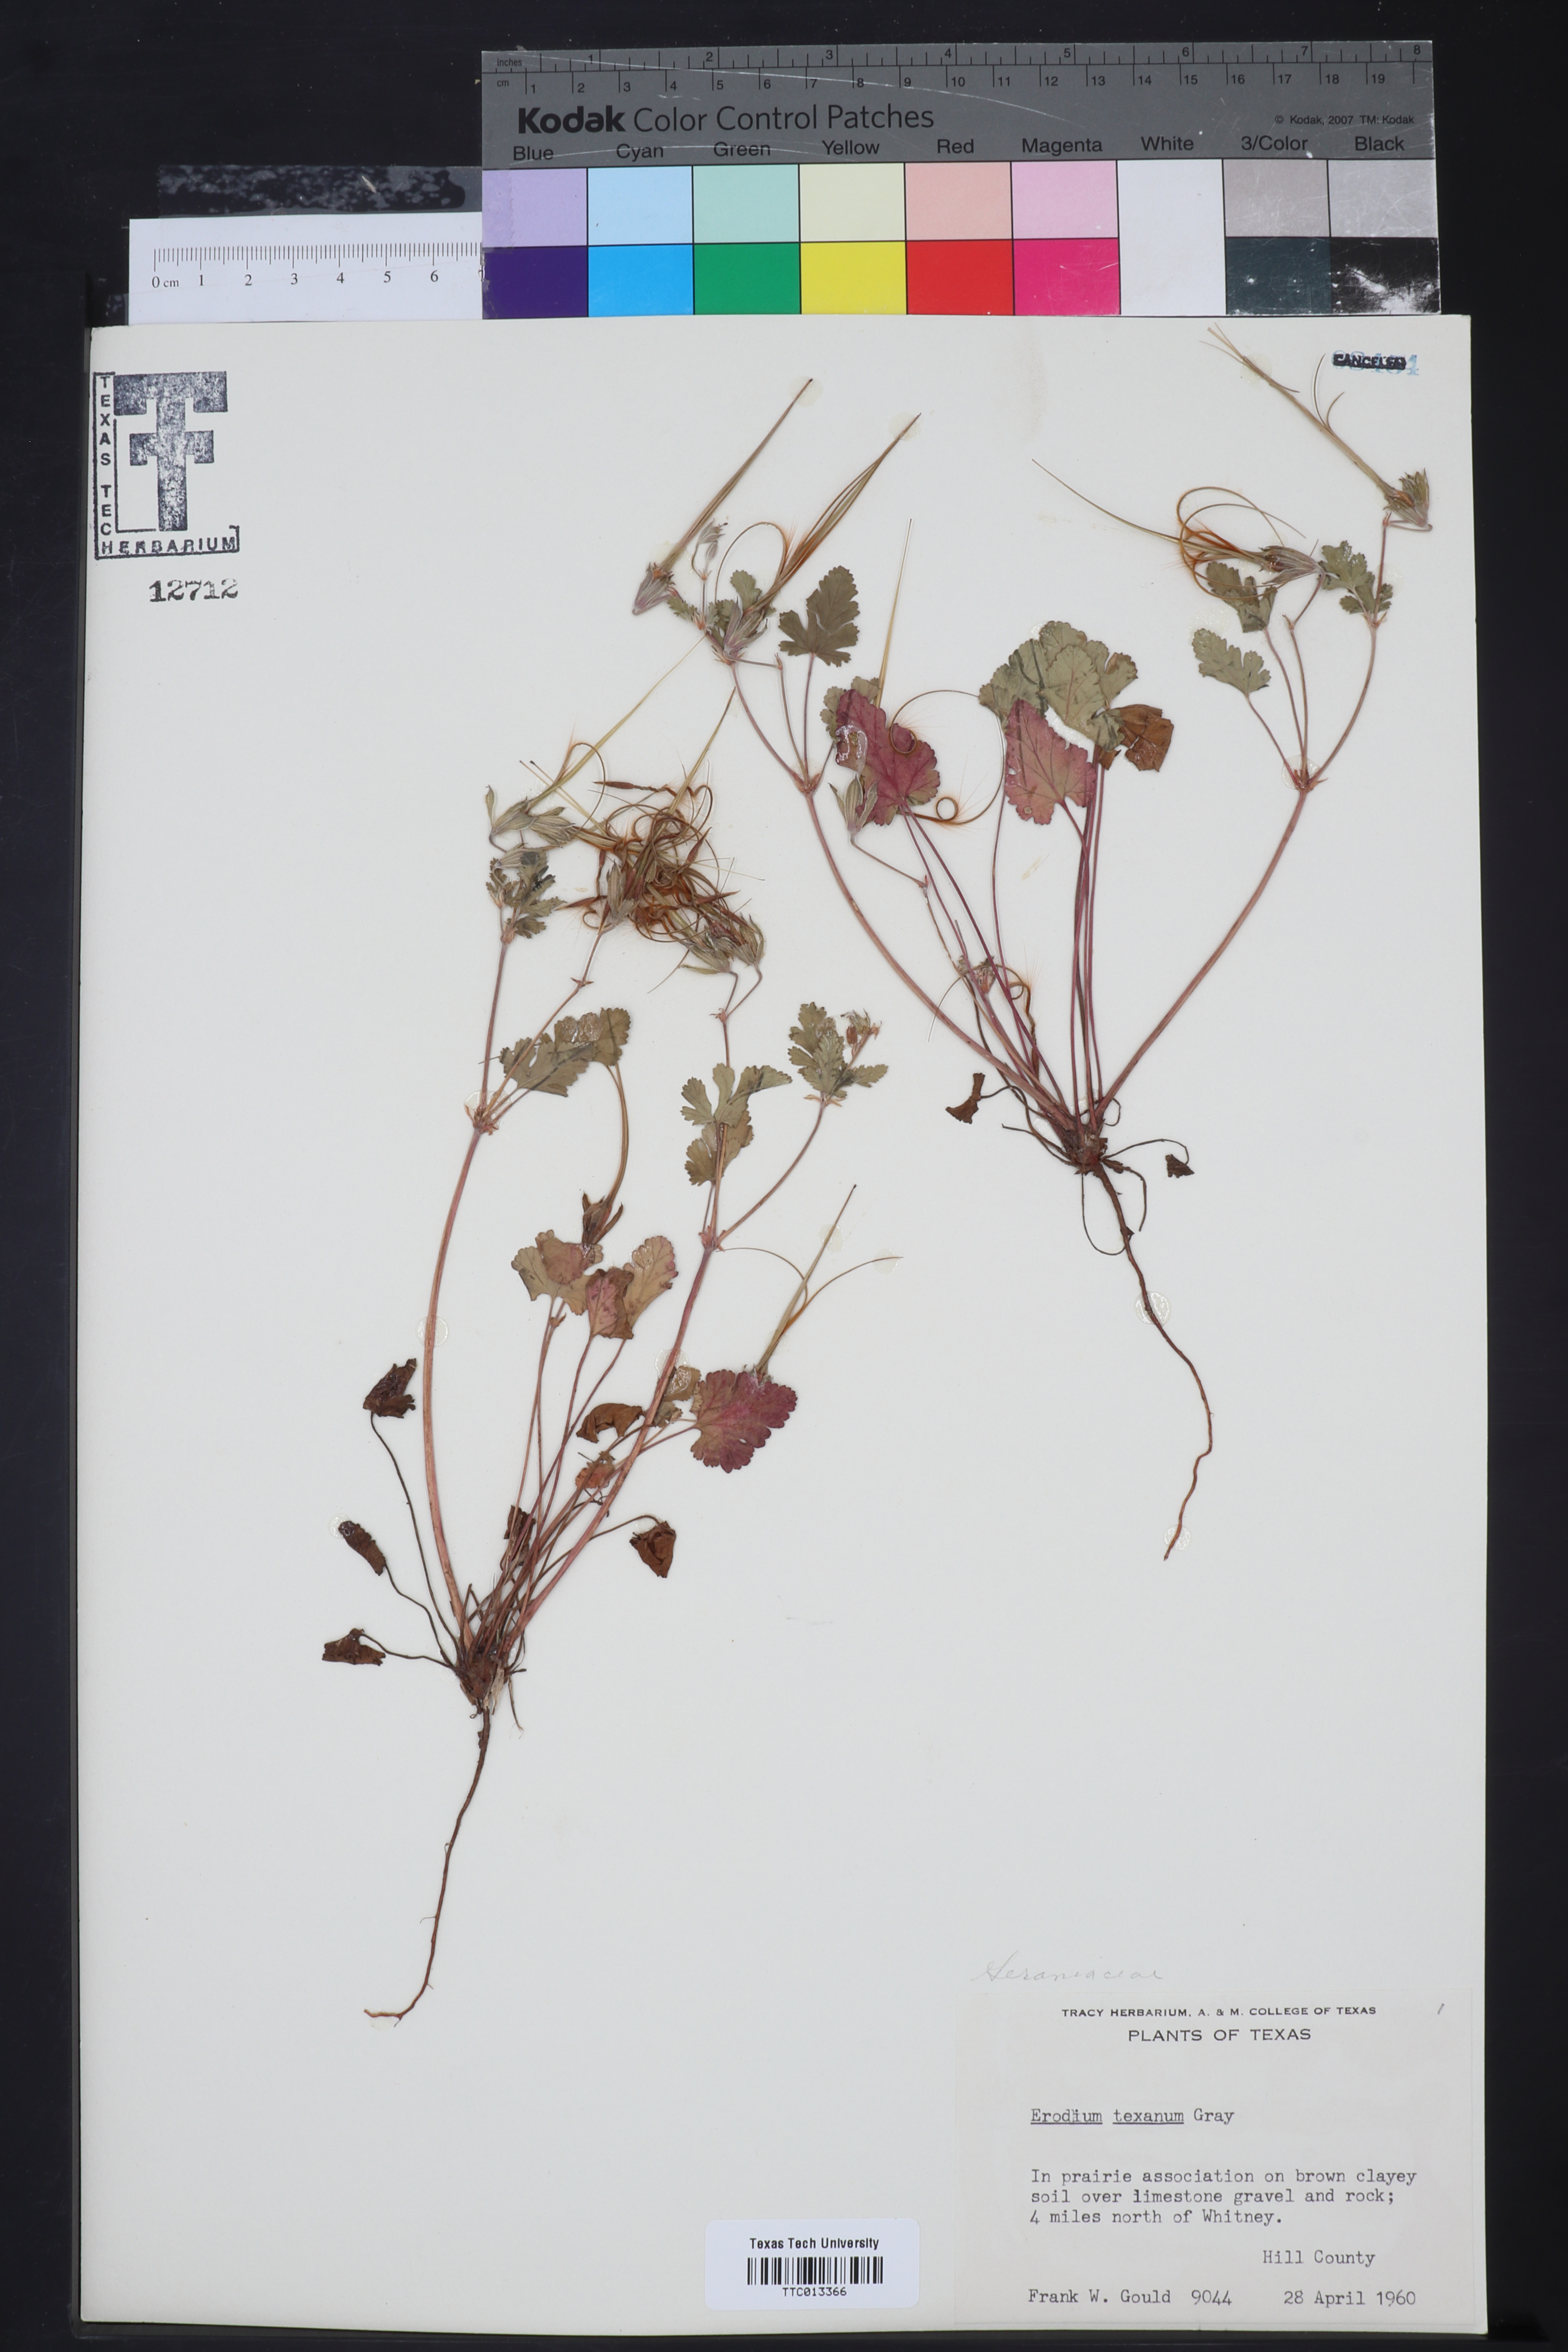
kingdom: Plantae
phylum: Tracheophyta
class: Magnoliopsida
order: Geraniales
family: Geraniaceae
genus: Erodium
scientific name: Erodium texanum
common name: Texas stork's-bill
